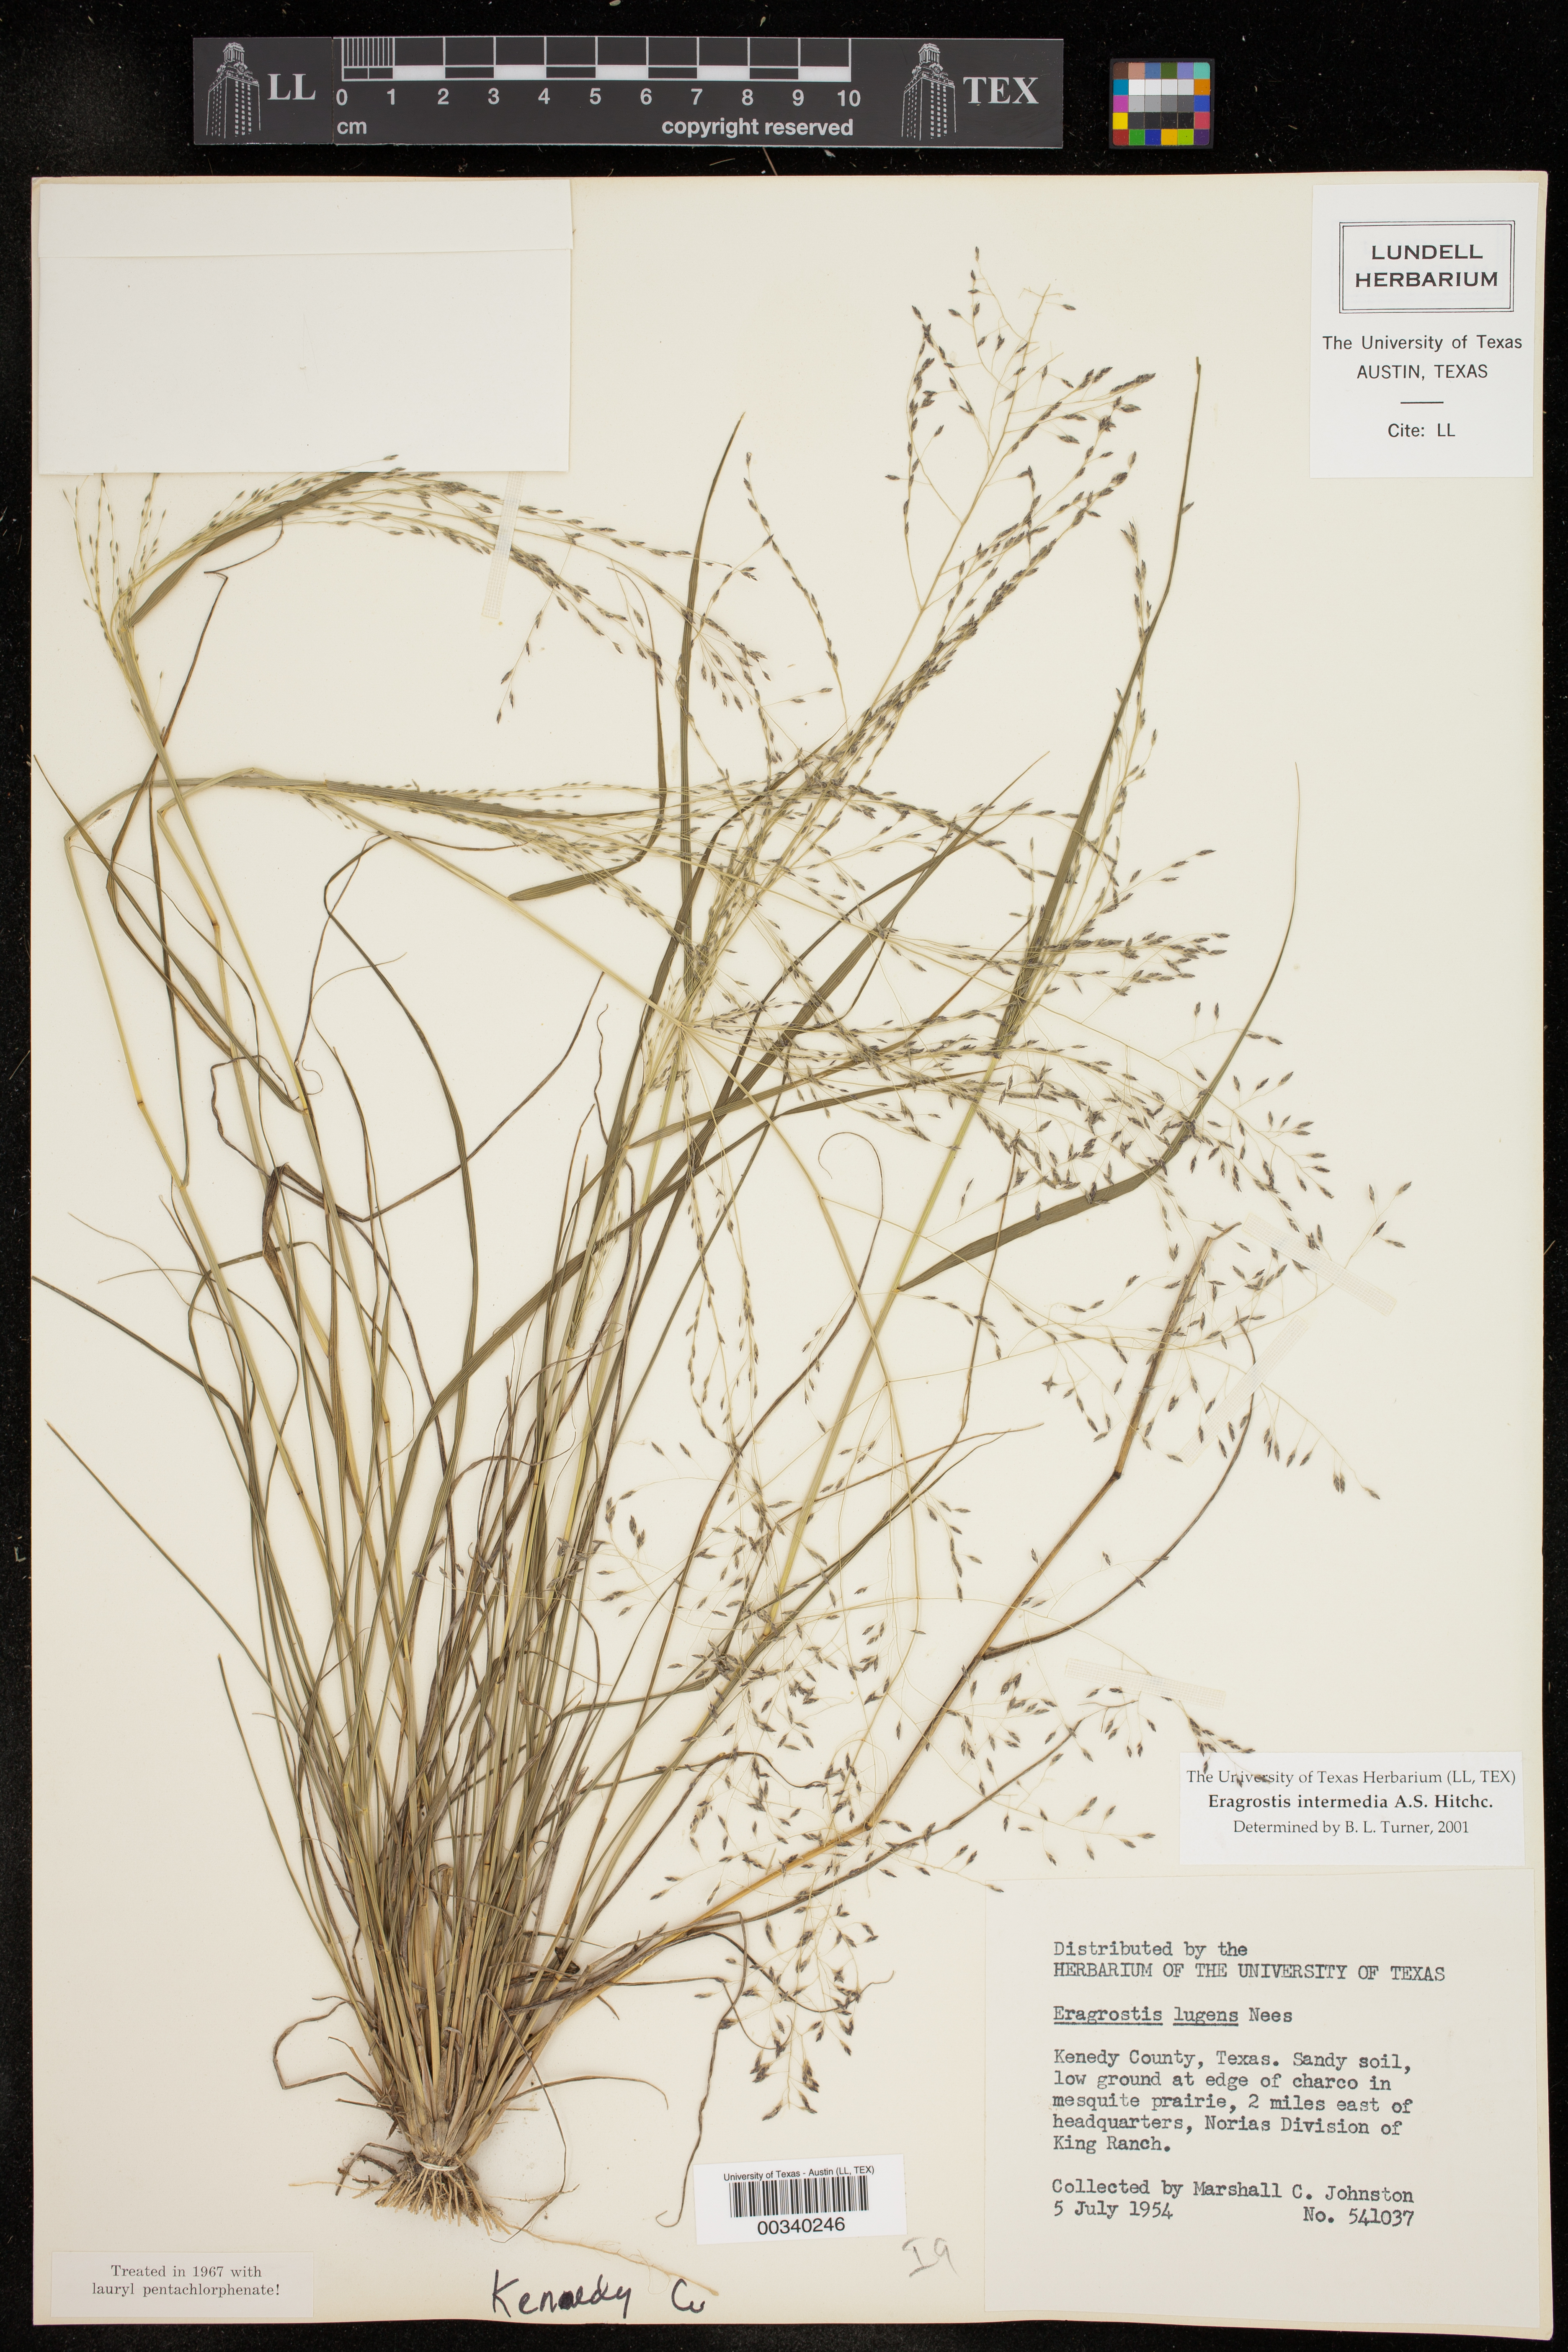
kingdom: Plantae
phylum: Tracheophyta
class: Liliopsida
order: Poales
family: Poaceae
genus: Eragrostis
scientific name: Eragrostis intermedia
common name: Plains love grass
